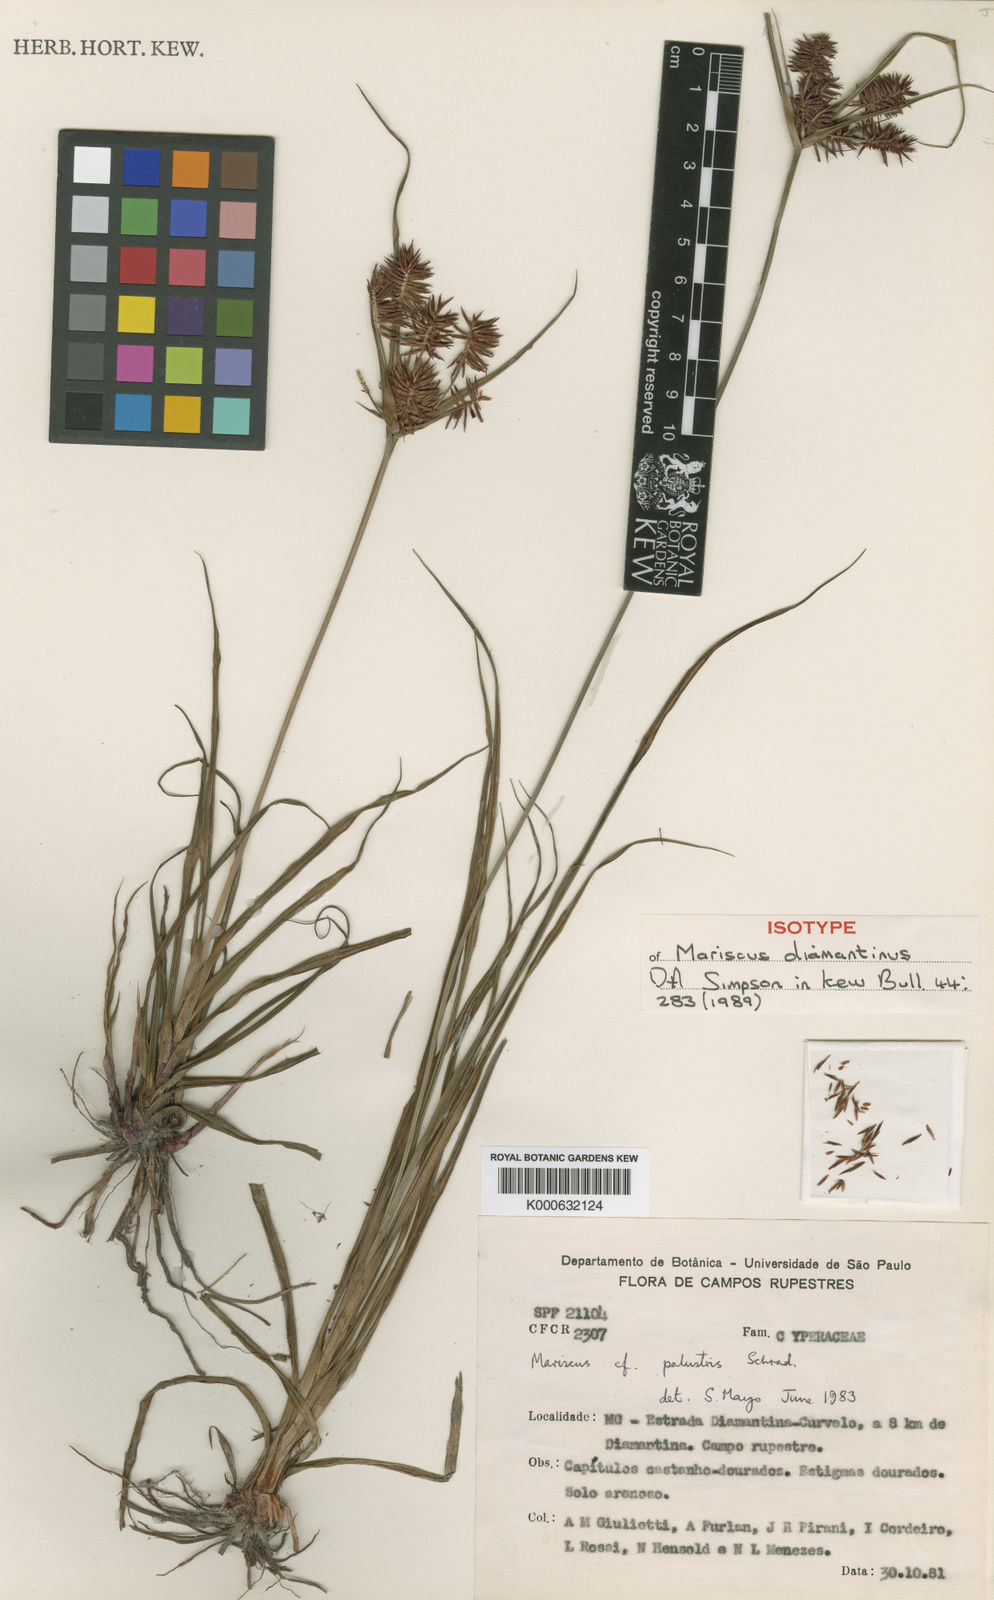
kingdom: Plantae
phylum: Tracheophyta
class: Liliopsida
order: Poales
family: Cyperaceae
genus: Cyperus
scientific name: Cyperus diamantinus
